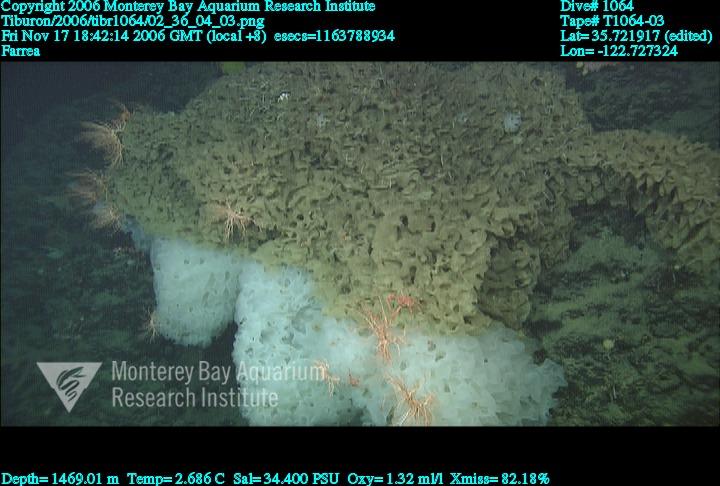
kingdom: Animalia
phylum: Porifera
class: Hexactinellida
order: Sceptrulophora
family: Farreidae
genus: Farrea
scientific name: Farrea
